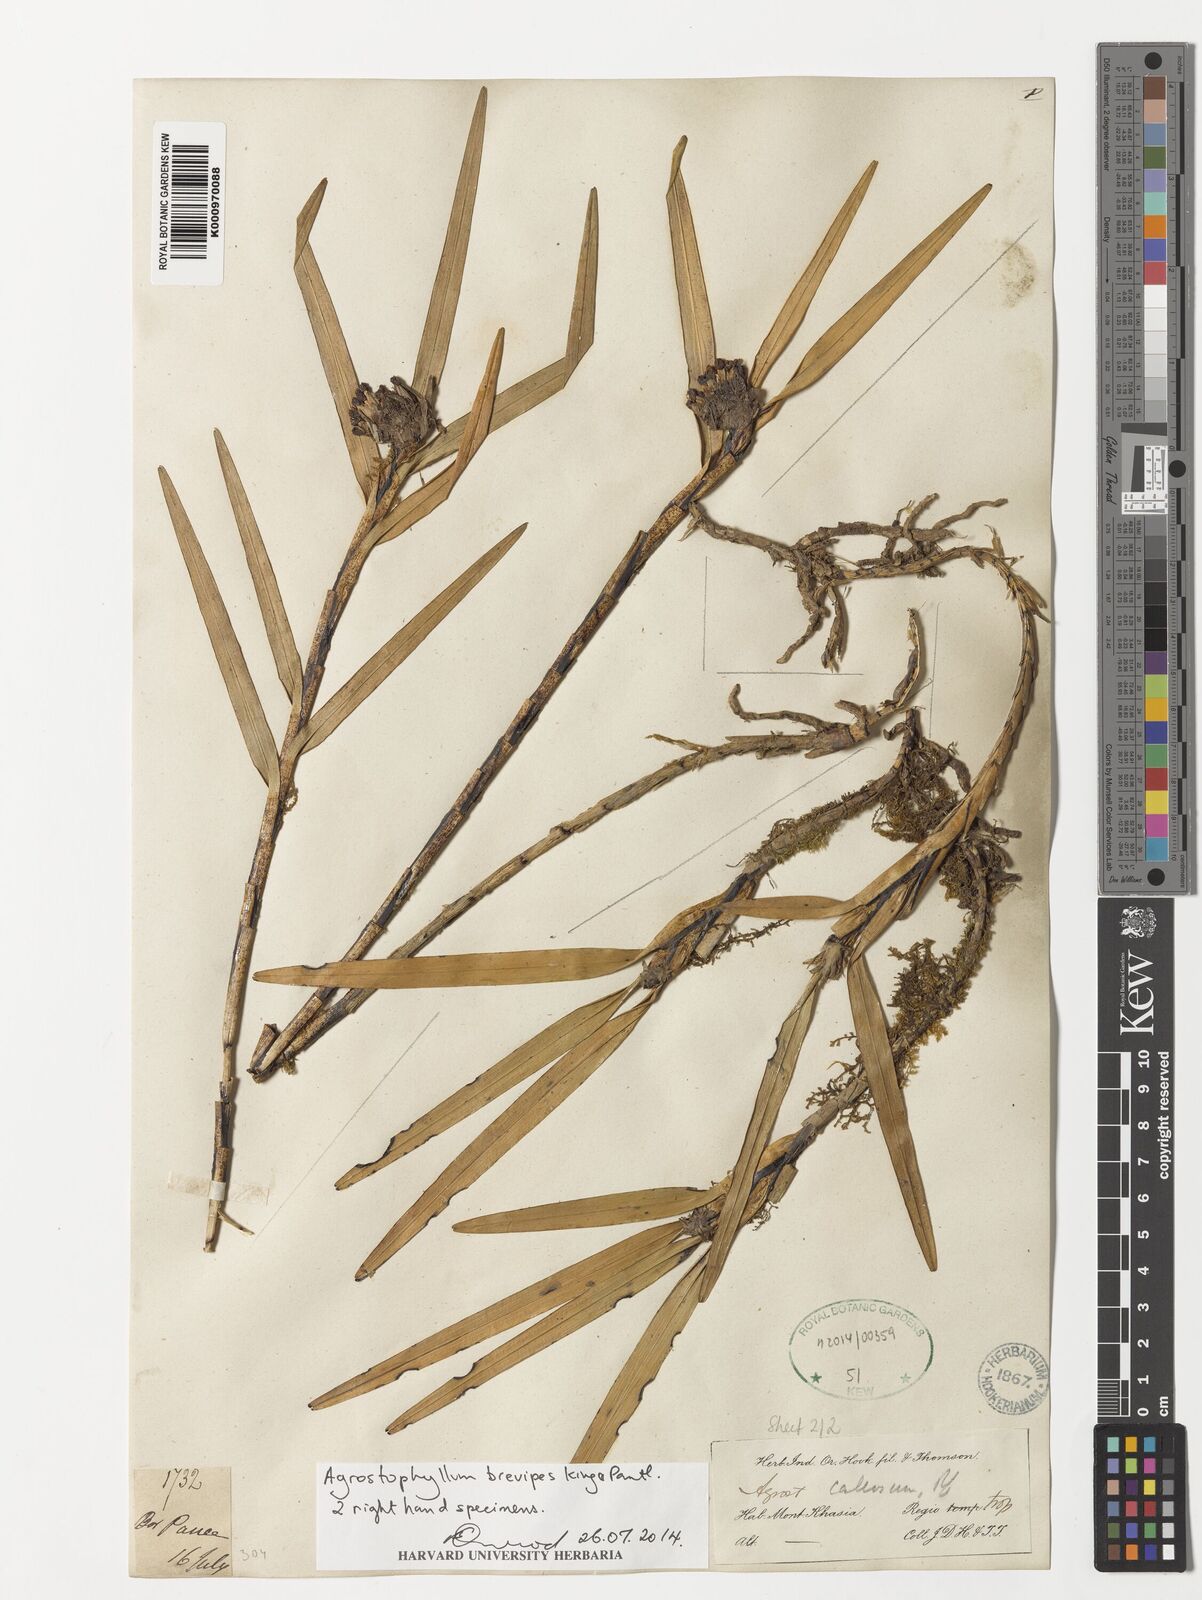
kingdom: Plantae
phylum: Tracheophyta
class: Liliopsida
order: Asparagales
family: Orchidaceae
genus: Agrostophyllum
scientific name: Agrostophyllum brevipes
